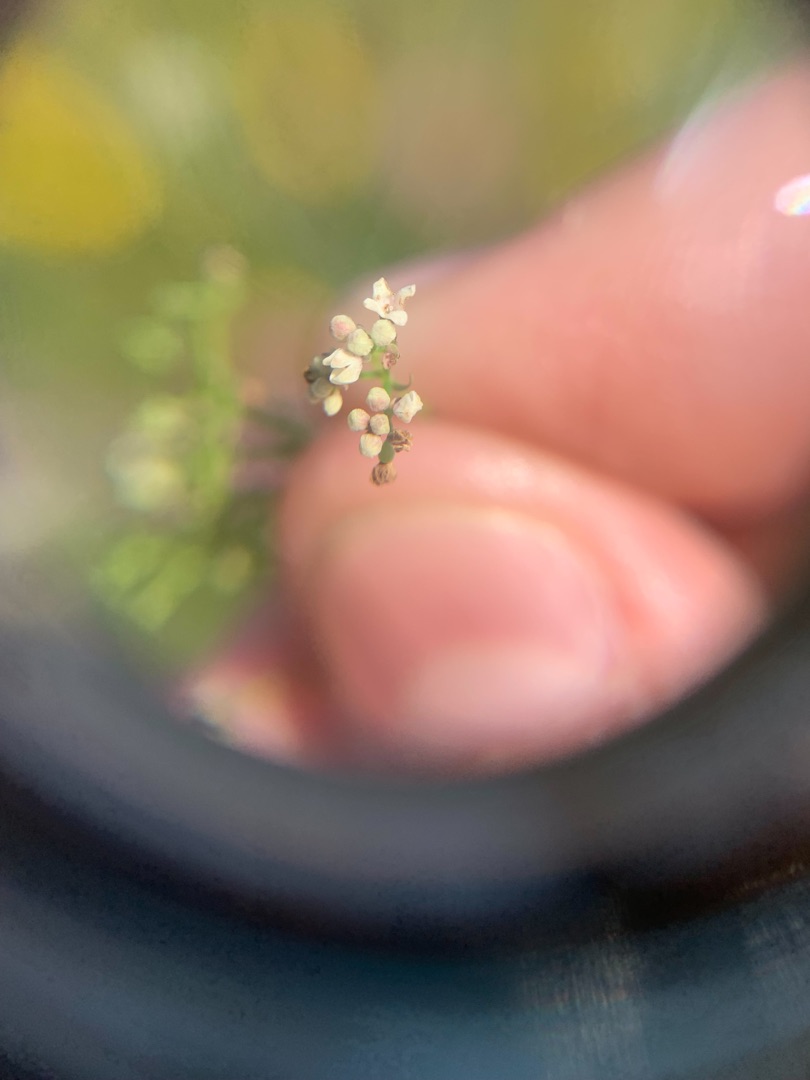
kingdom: Plantae
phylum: Tracheophyta
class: Magnoliopsida
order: Gentianales
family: Rubiaceae
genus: Galium
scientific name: Galium palustre
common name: Kær-snerre
